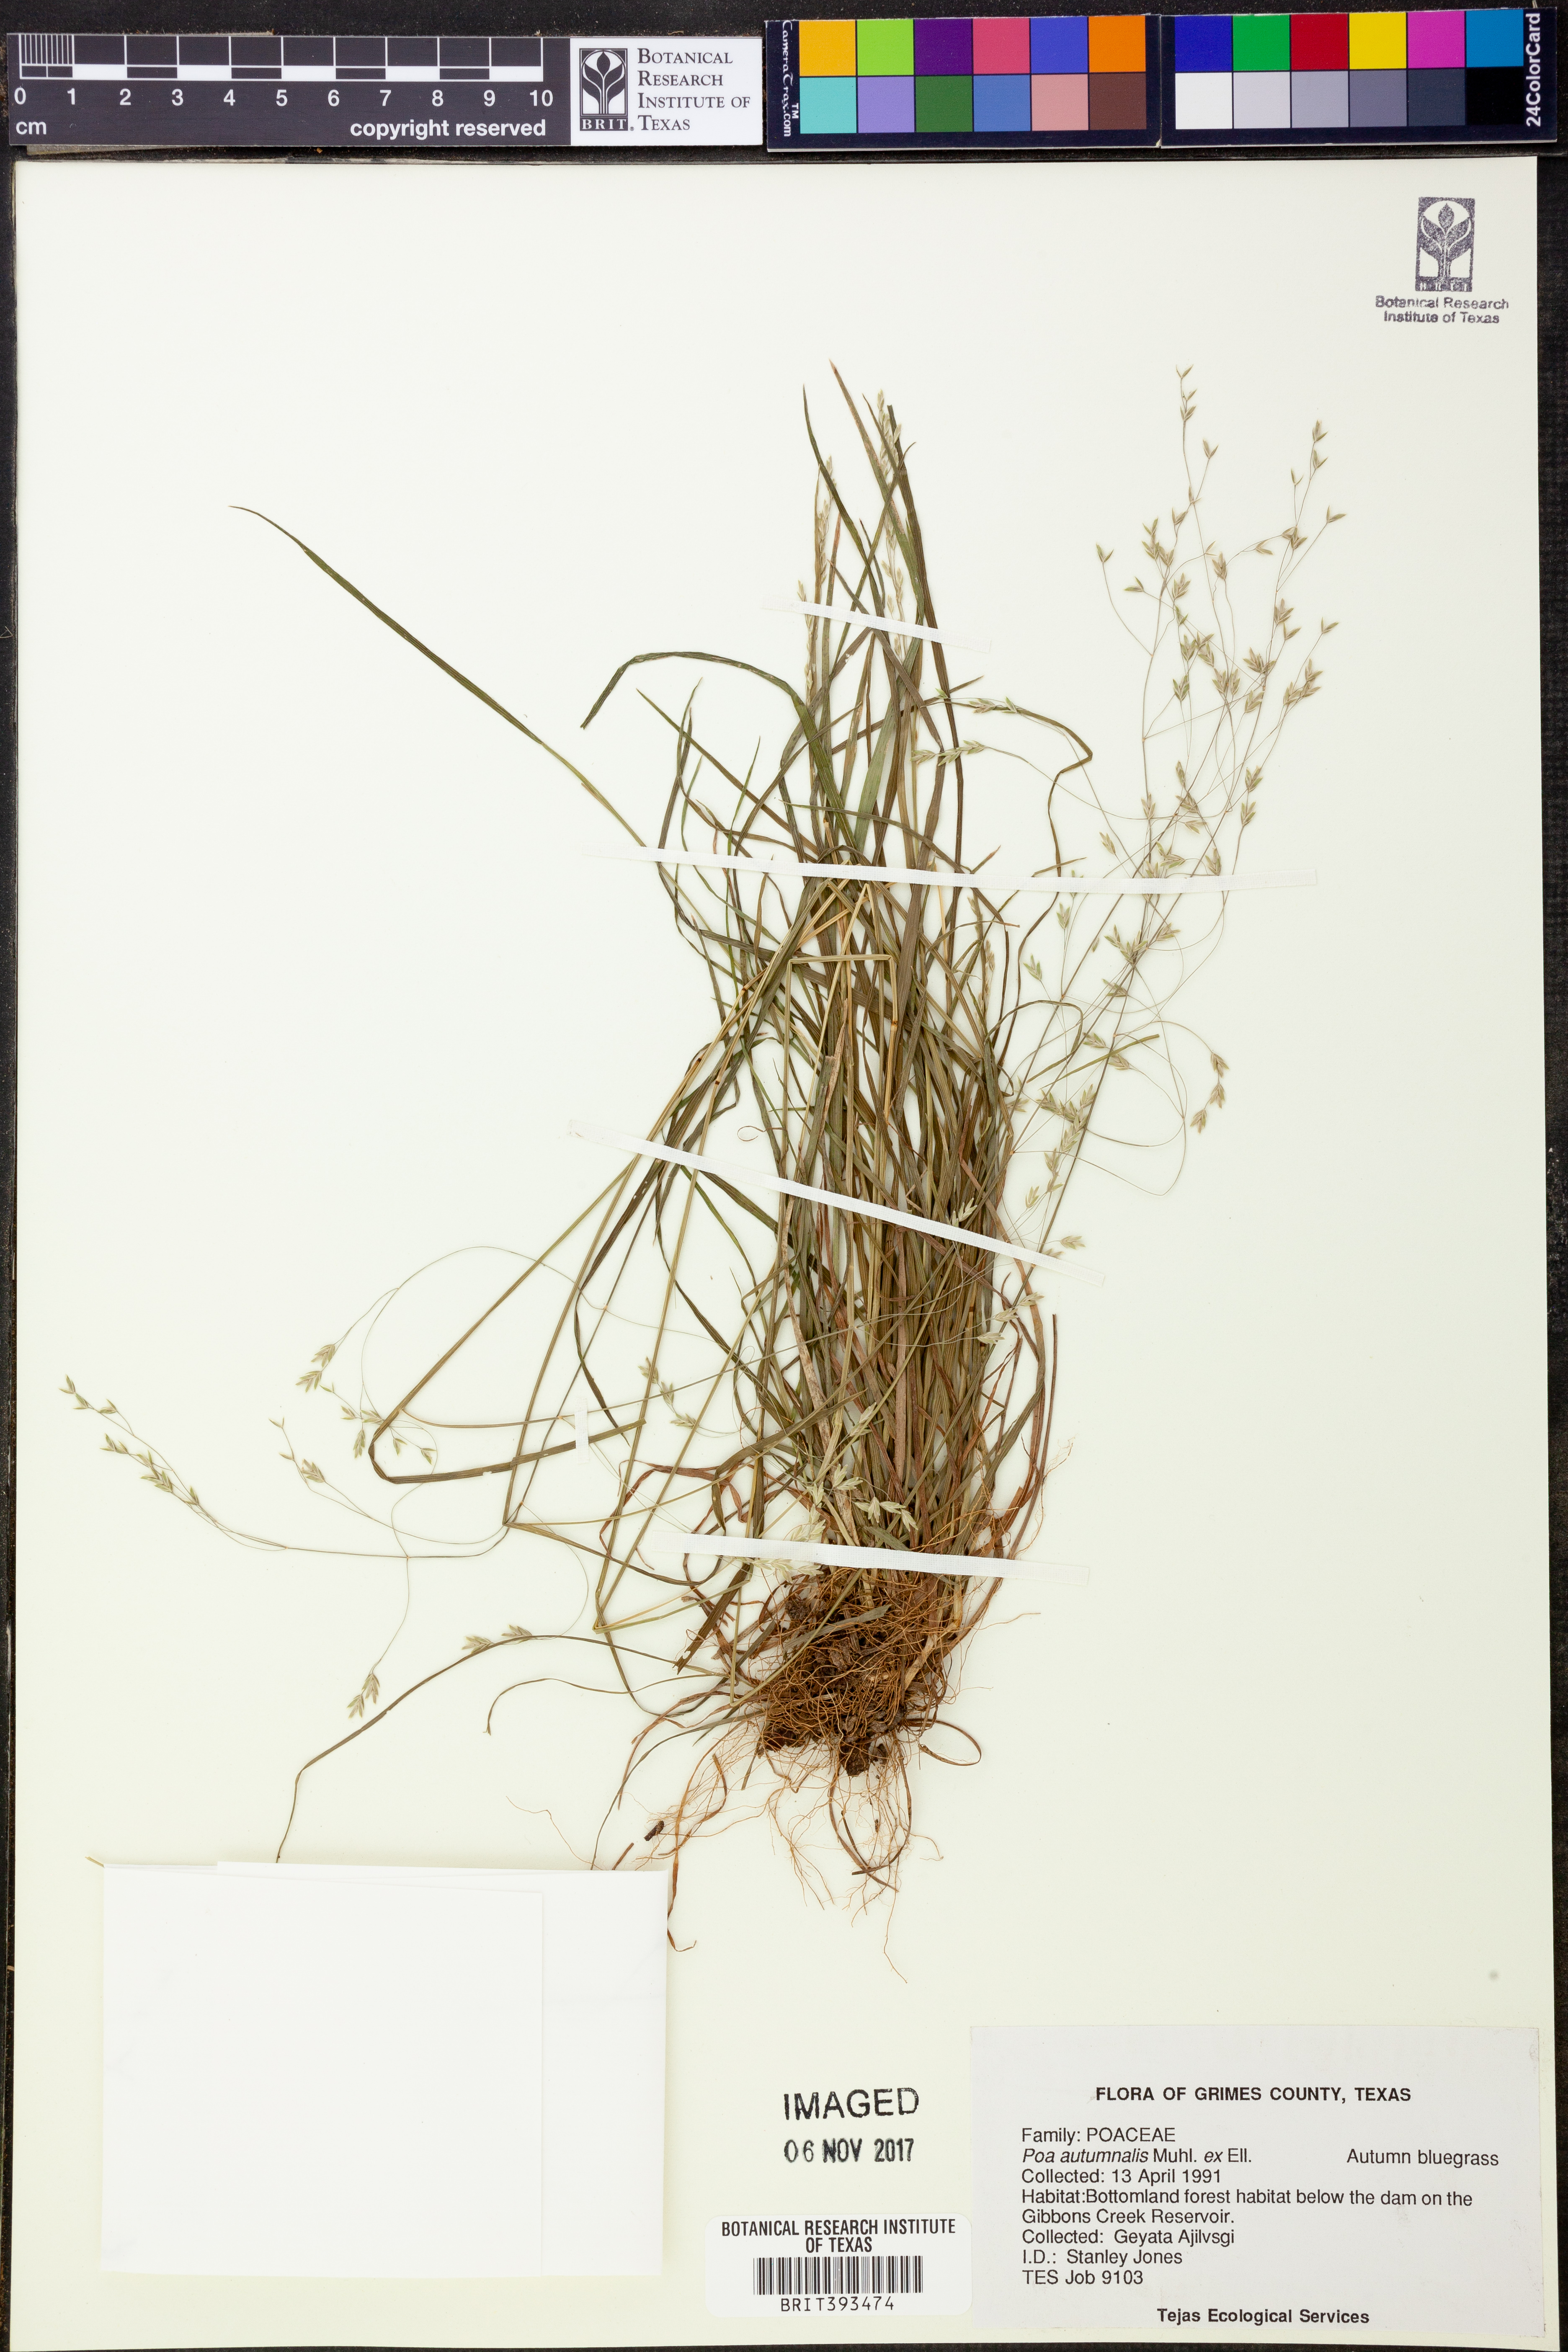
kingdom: Plantae
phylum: Tracheophyta
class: Liliopsida
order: Poales
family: Poaceae
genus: Poa
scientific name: Poa autumnalis
